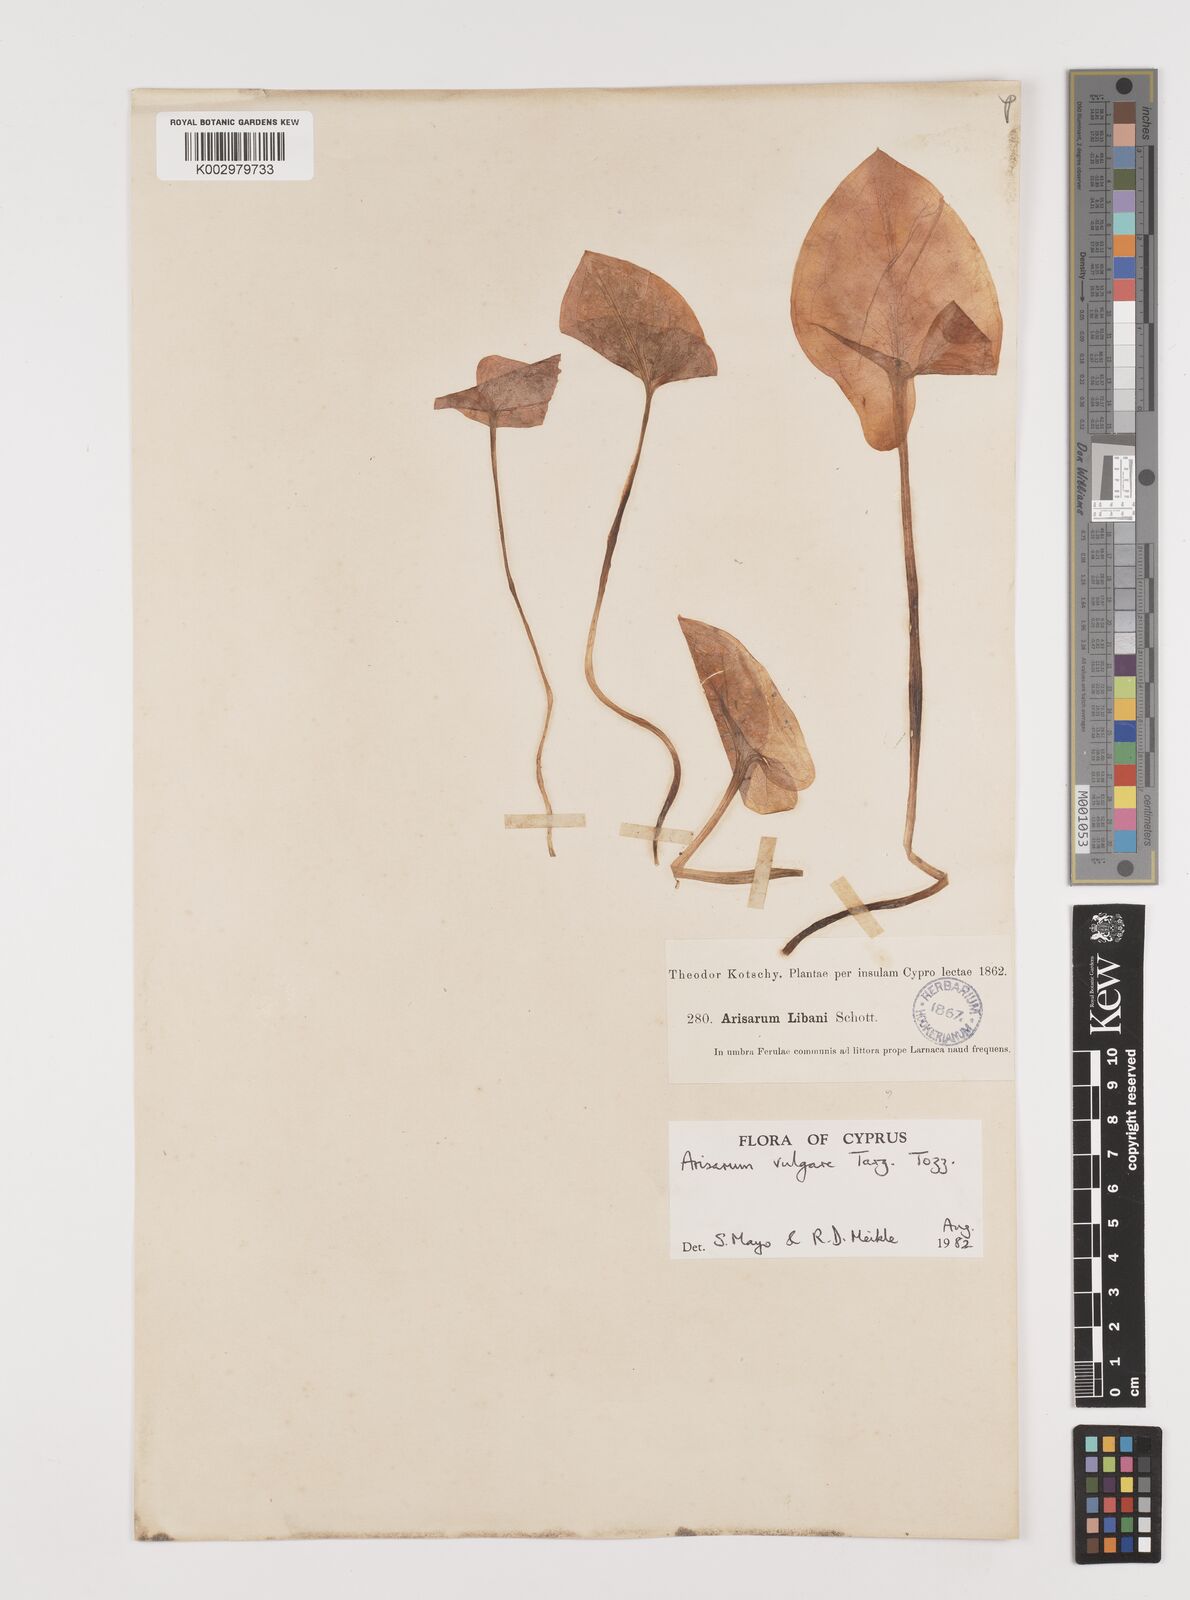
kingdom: Plantae
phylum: Tracheophyta
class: Liliopsida
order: Alismatales
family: Araceae
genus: Arisarum
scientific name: Arisarum vulgare
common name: Common arisarum
